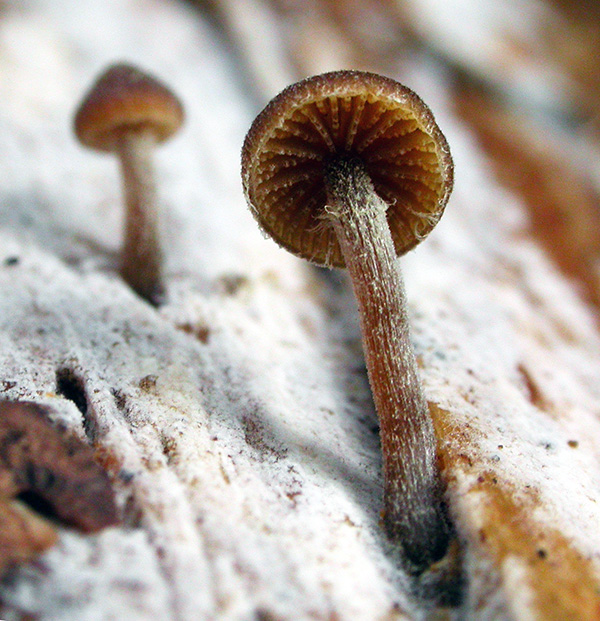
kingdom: Fungi
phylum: Basidiomycota
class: Agaricomycetes
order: Agaricales
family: Hymenogastraceae
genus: Galerina
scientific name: Galerina triscopa
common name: spidspuklet hjelmhat
